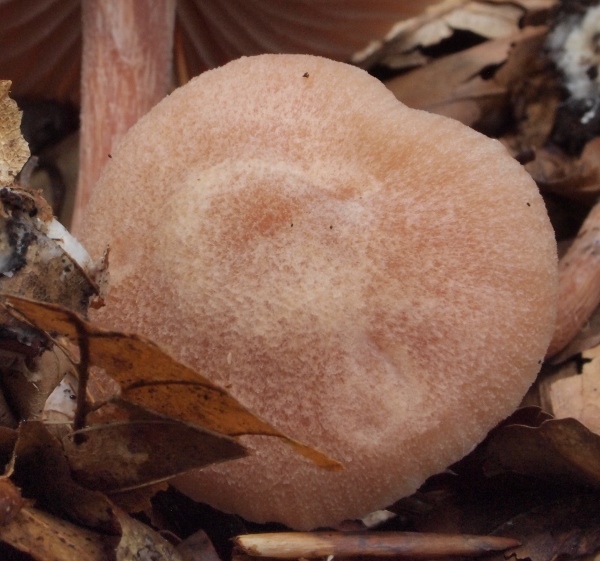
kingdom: Fungi
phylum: Basidiomycota
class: Agaricomycetes
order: Agaricales
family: Hydnangiaceae
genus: Laccaria
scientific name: Laccaria proxima
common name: stor ametysthat
